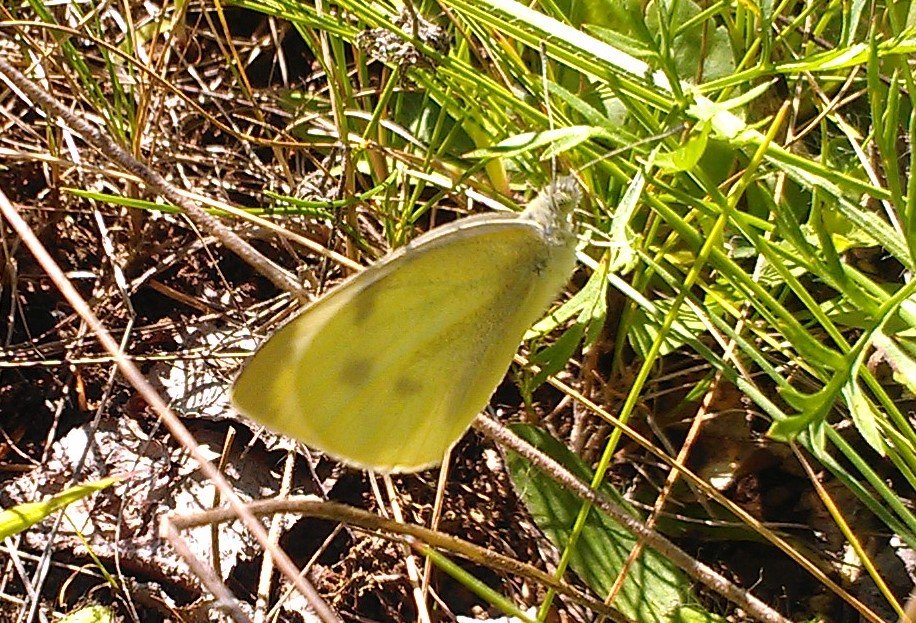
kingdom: Animalia
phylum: Arthropoda
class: Insecta
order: Lepidoptera
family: Pieridae
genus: Pieris
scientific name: Pieris rapae
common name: Cabbage White
